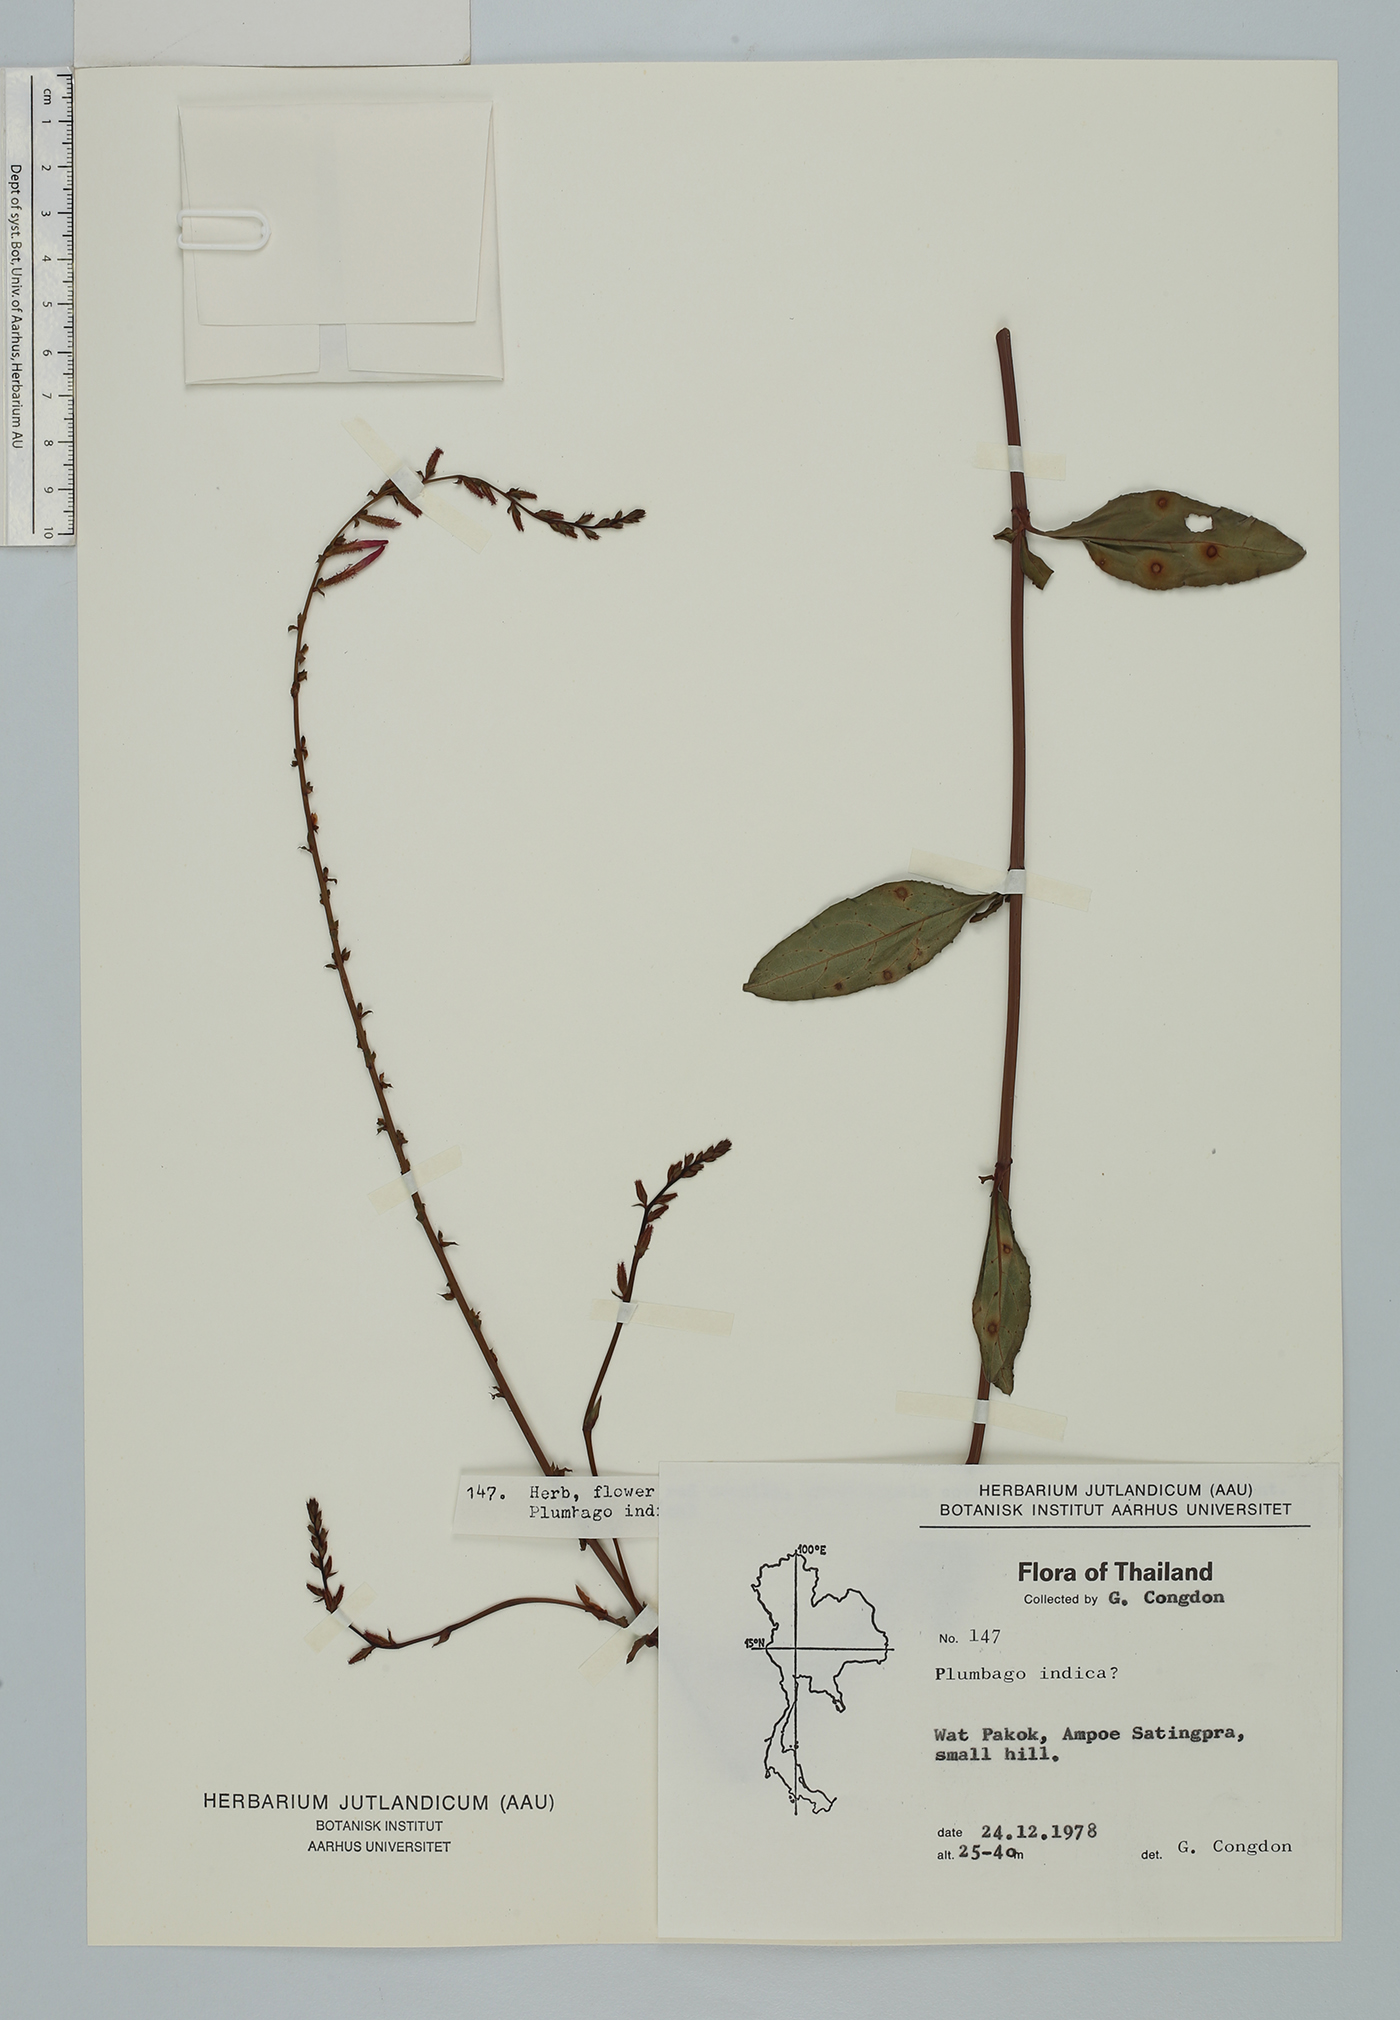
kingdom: Plantae
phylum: Tracheophyta
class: Magnoliopsida
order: Caryophyllales
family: Plumbaginaceae
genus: Plumbago
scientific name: Plumbago indica
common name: Indian leadwort
